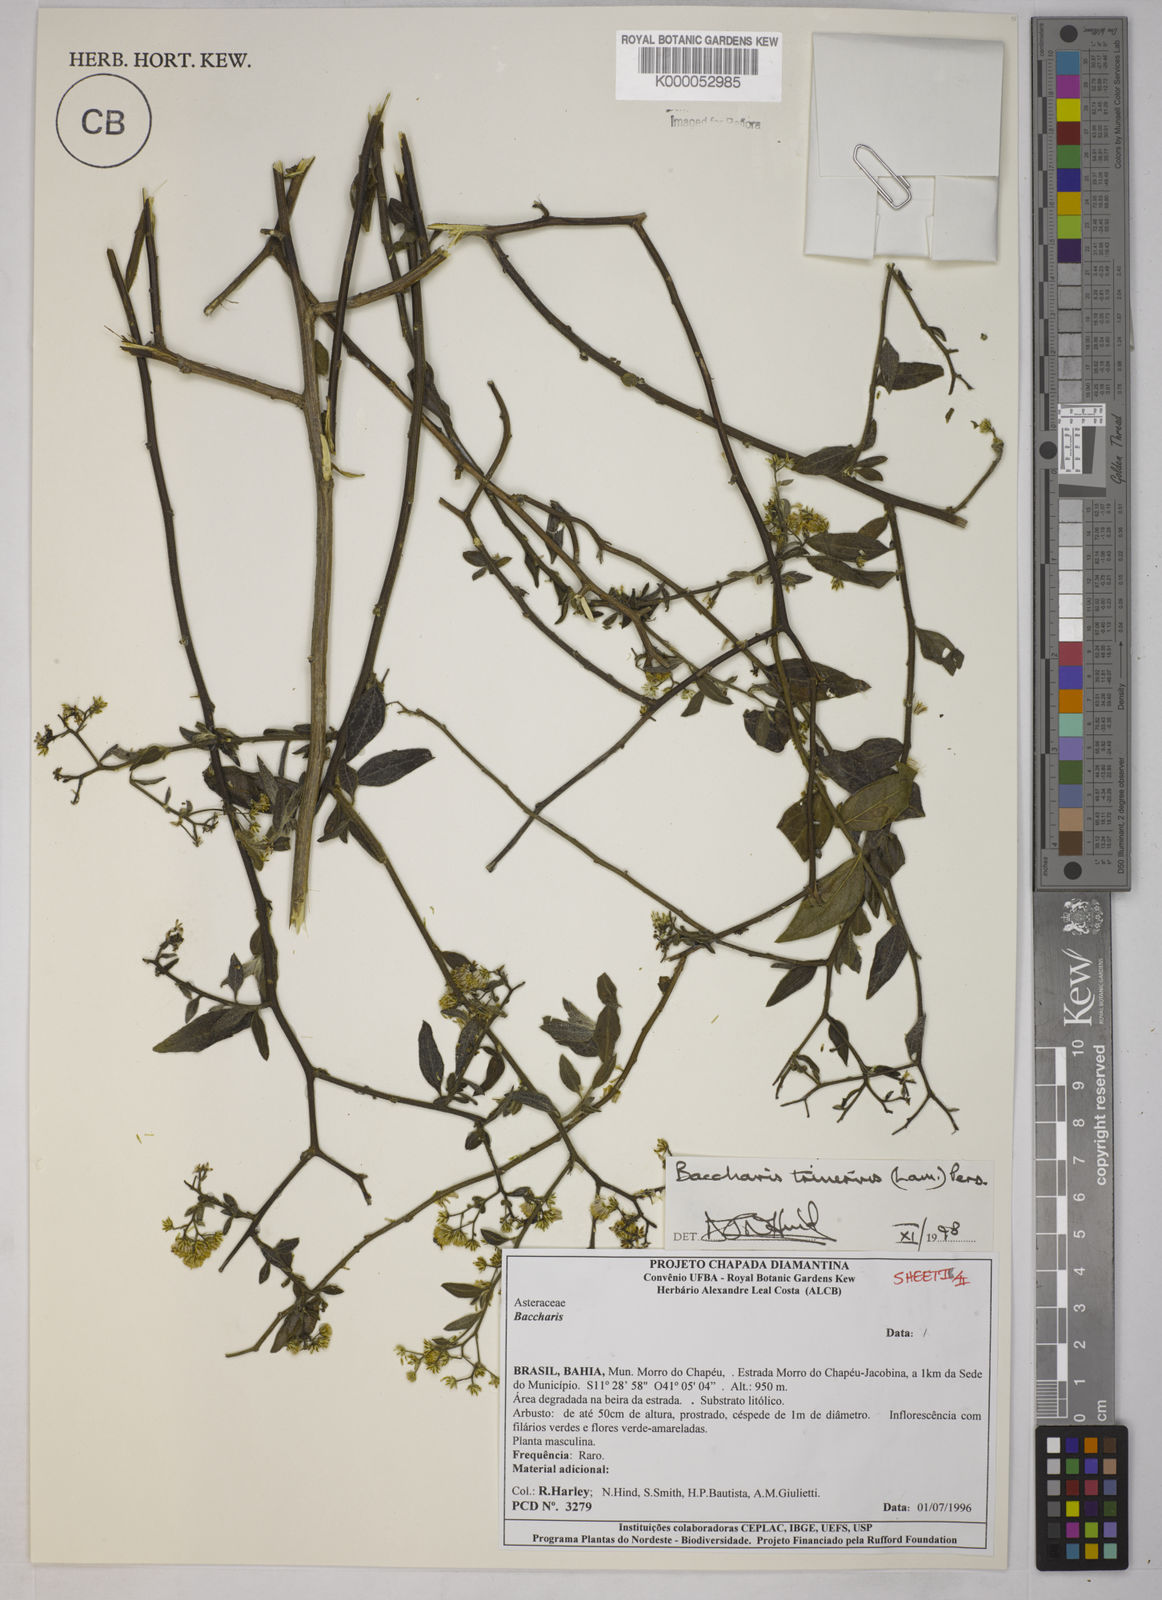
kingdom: Plantae
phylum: Tracheophyta
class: Magnoliopsida
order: Asterales
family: Asteraceae
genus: Baccharis
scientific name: Baccharis trinervis
